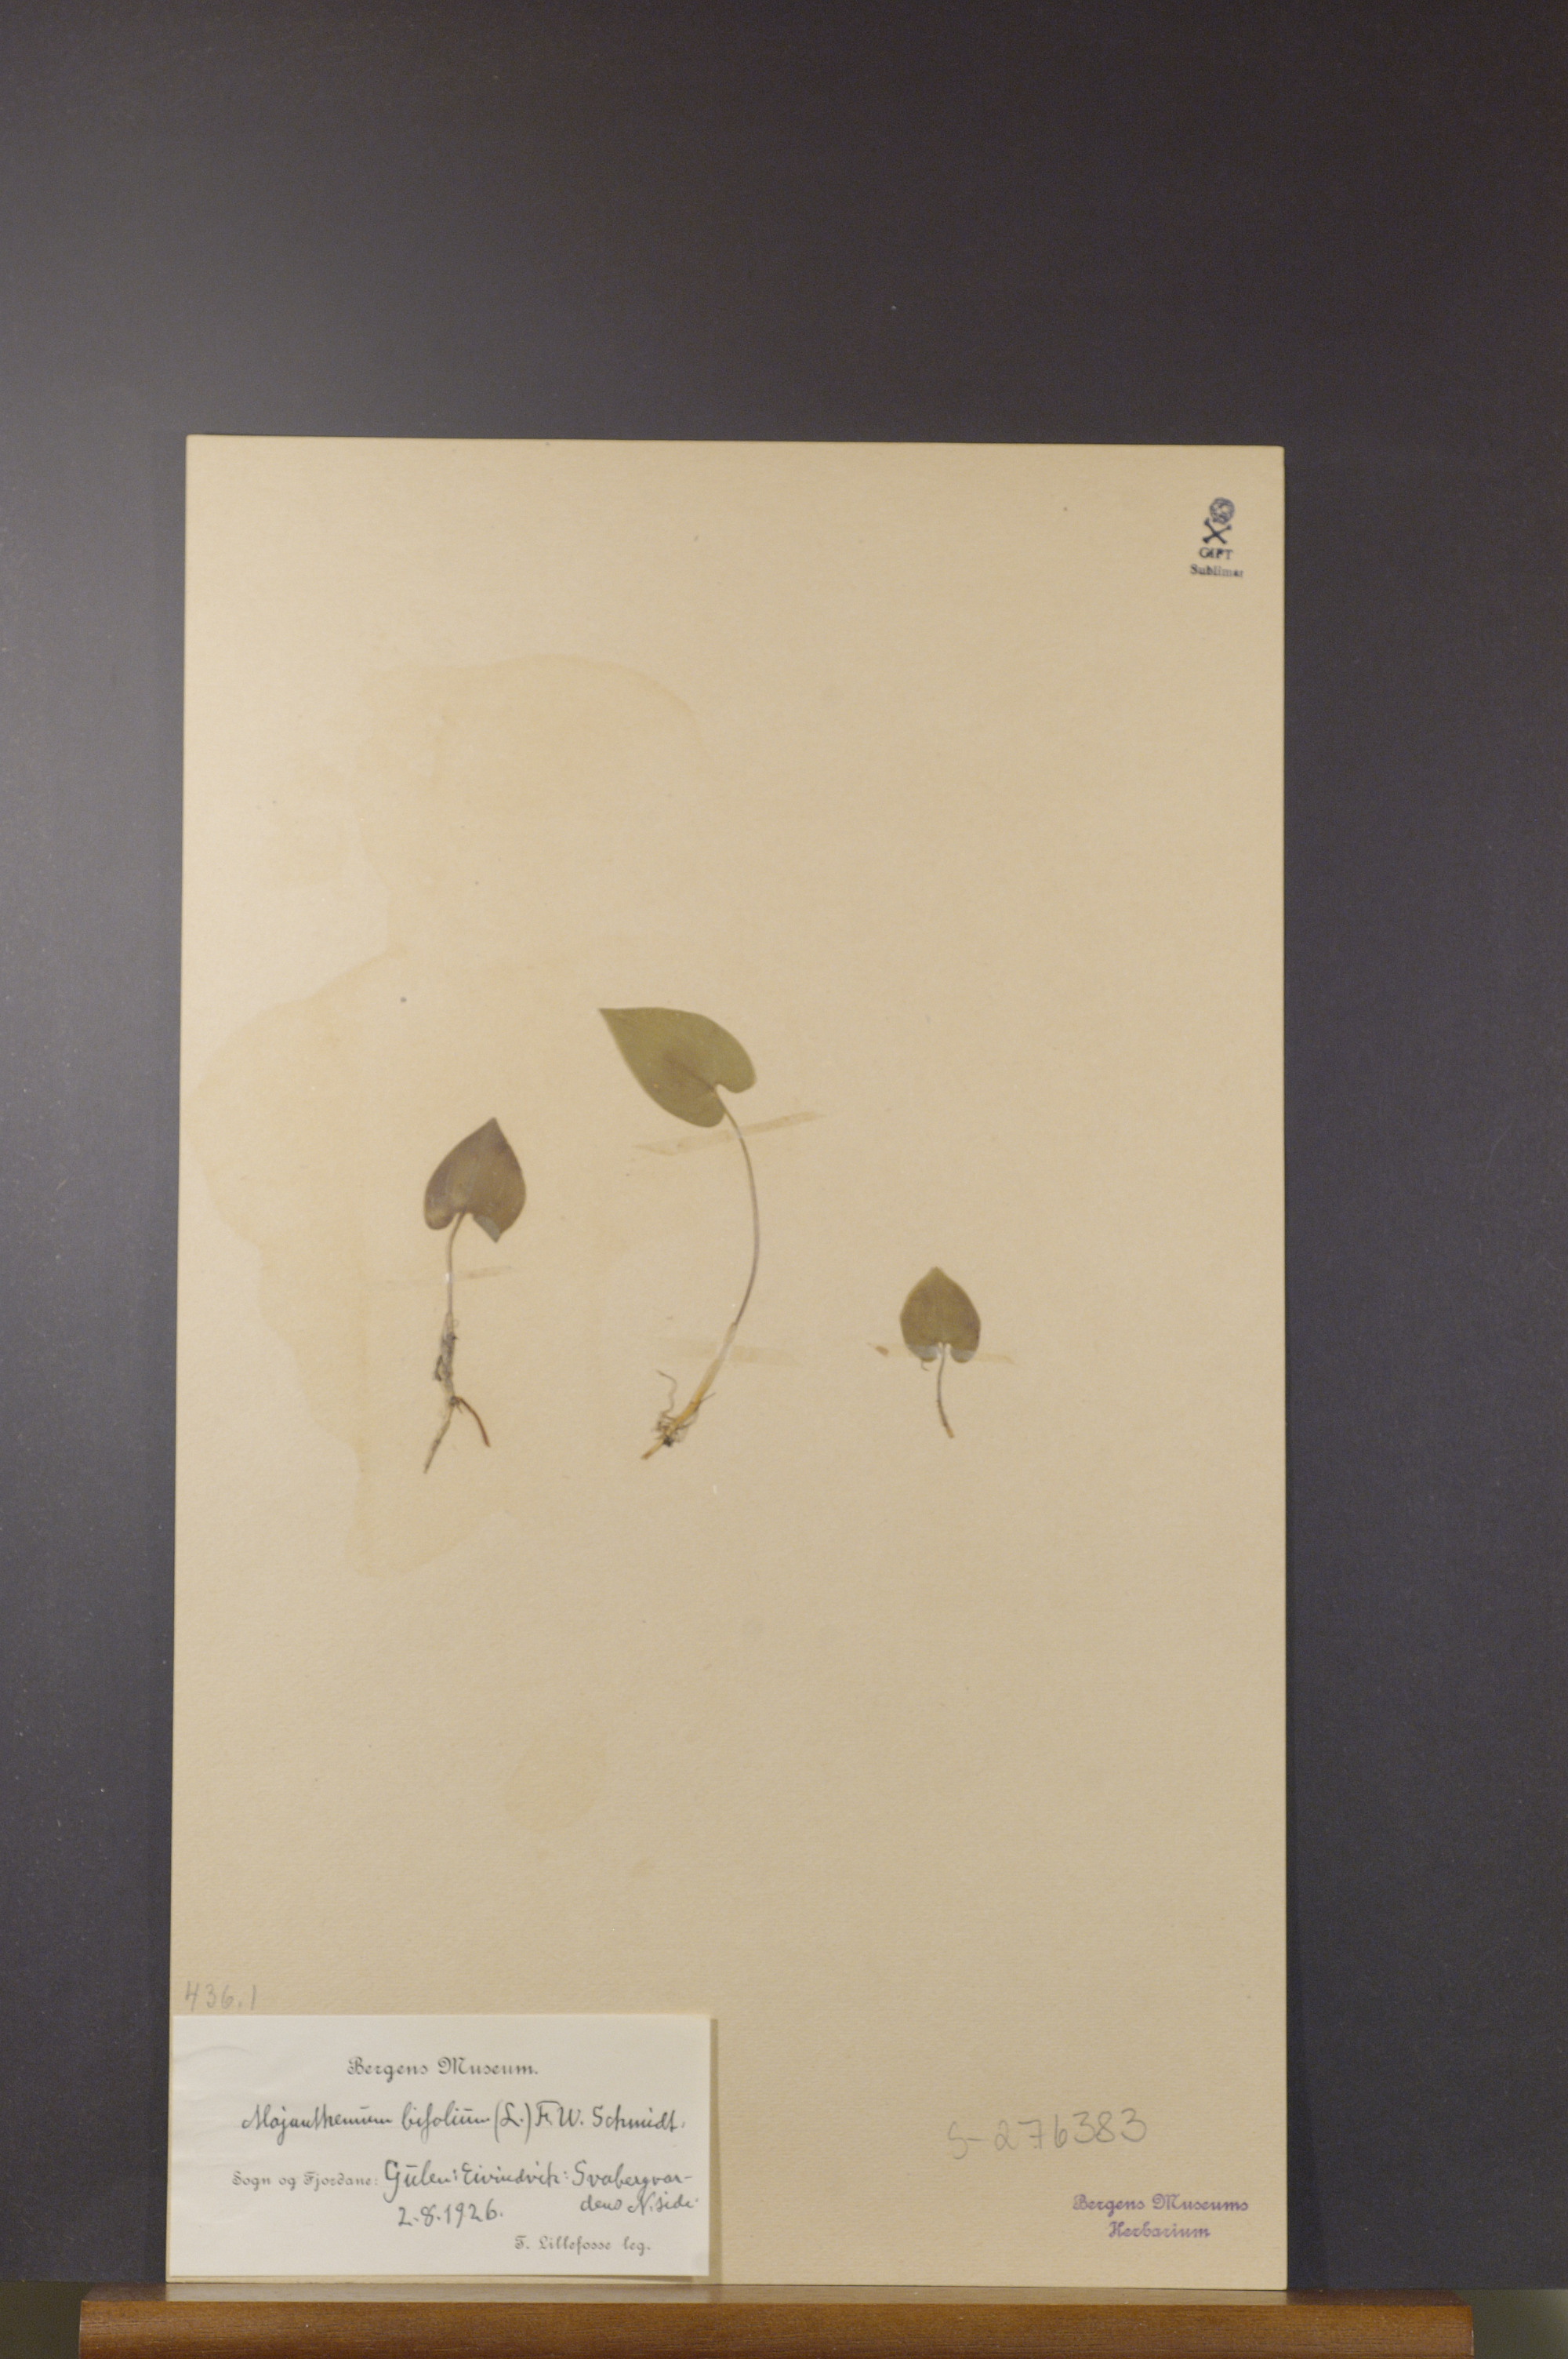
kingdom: Plantae
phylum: Tracheophyta
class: Liliopsida
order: Asparagales
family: Asparagaceae
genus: Maianthemum
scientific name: Maianthemum bifolium
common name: May lily
